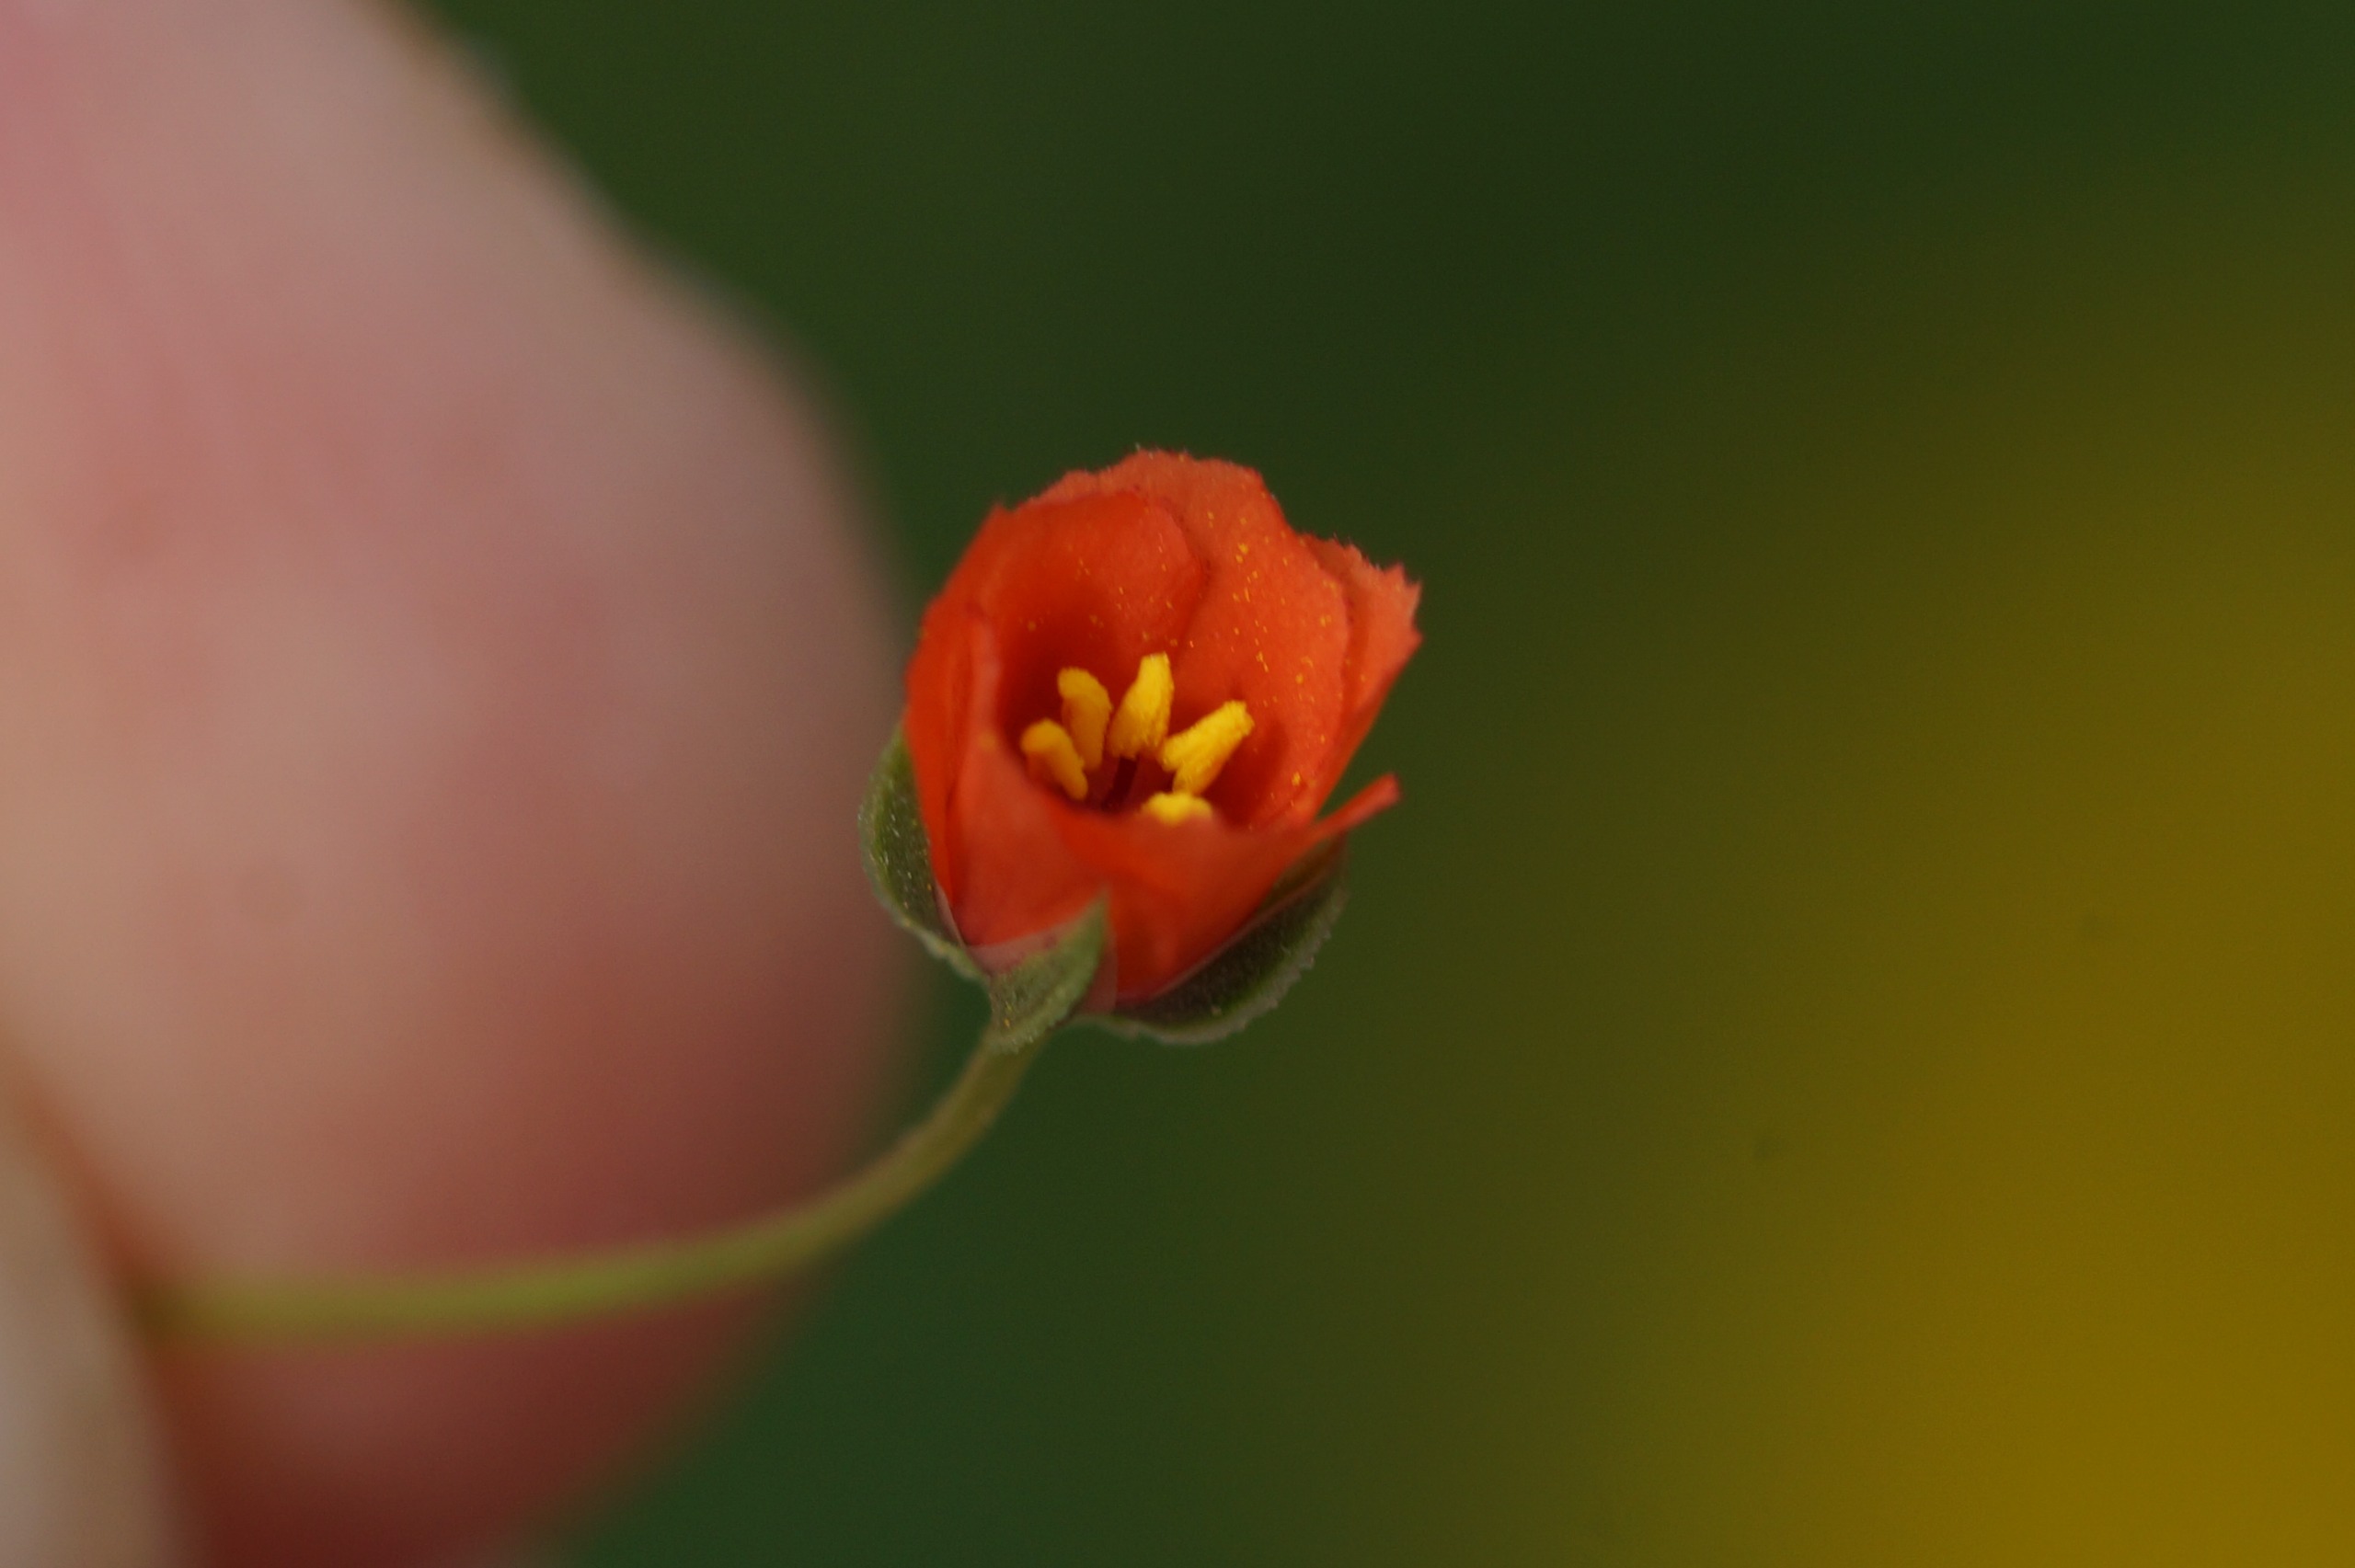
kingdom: Plantae
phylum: Tracheophyta
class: Magnoliopsida
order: Ericales
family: Primulaceae
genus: Lysimachia
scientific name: Lysimachia arvensis
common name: Rød arve
